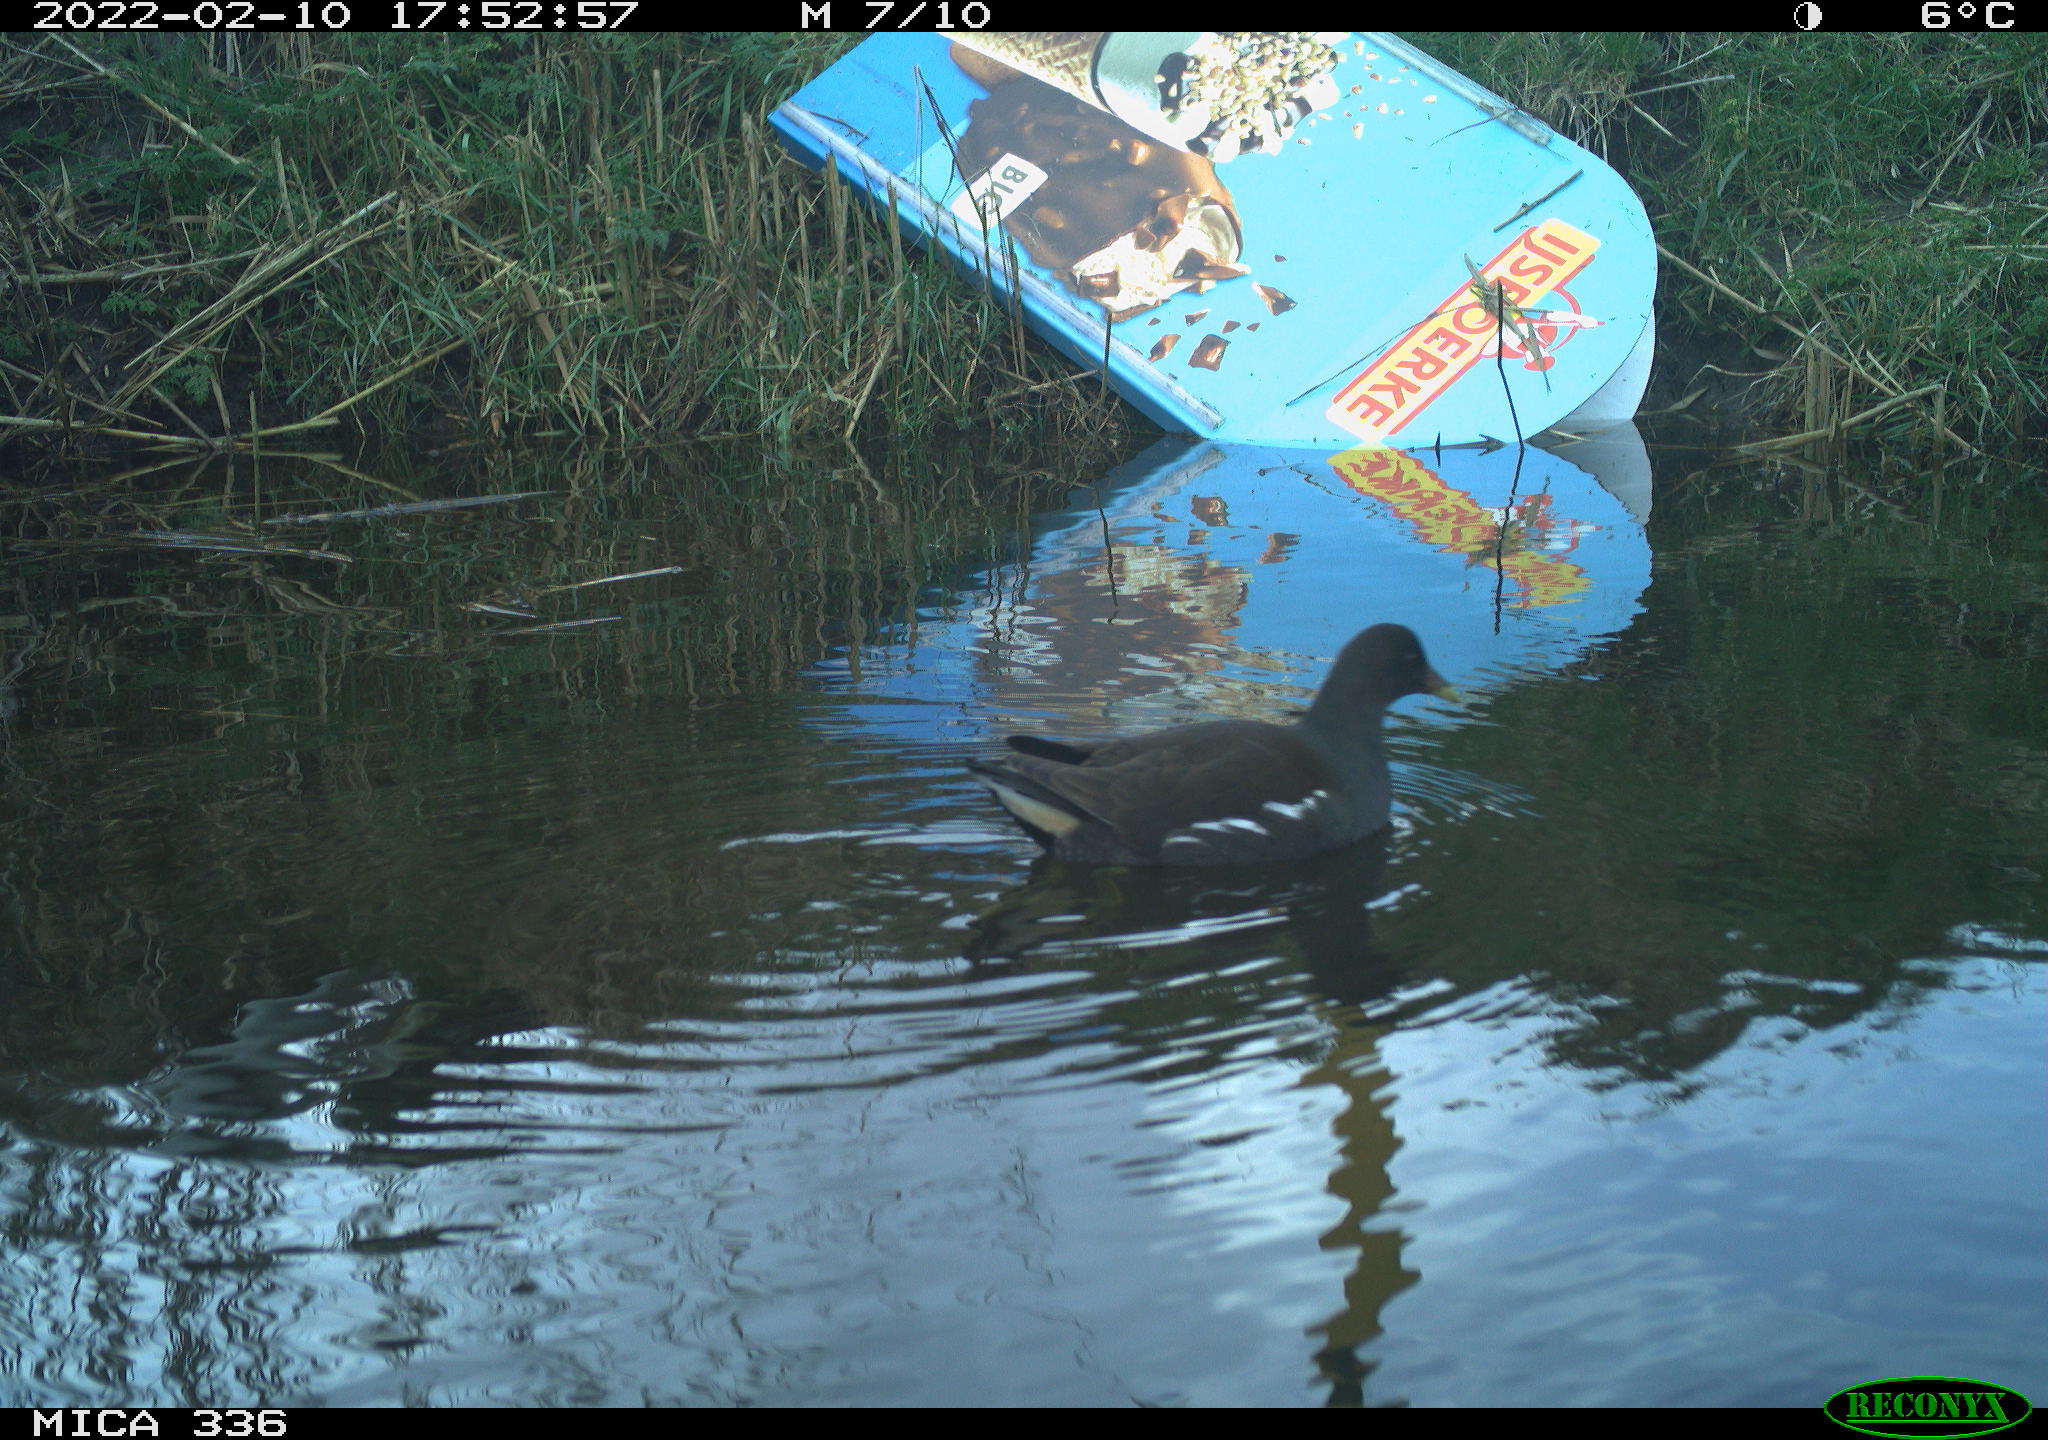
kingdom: Animalia
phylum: Chordata
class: Aves
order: Gruiformes
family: Rallidae
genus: Gallinula
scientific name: Gallinula chloropus
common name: Common moorhen
